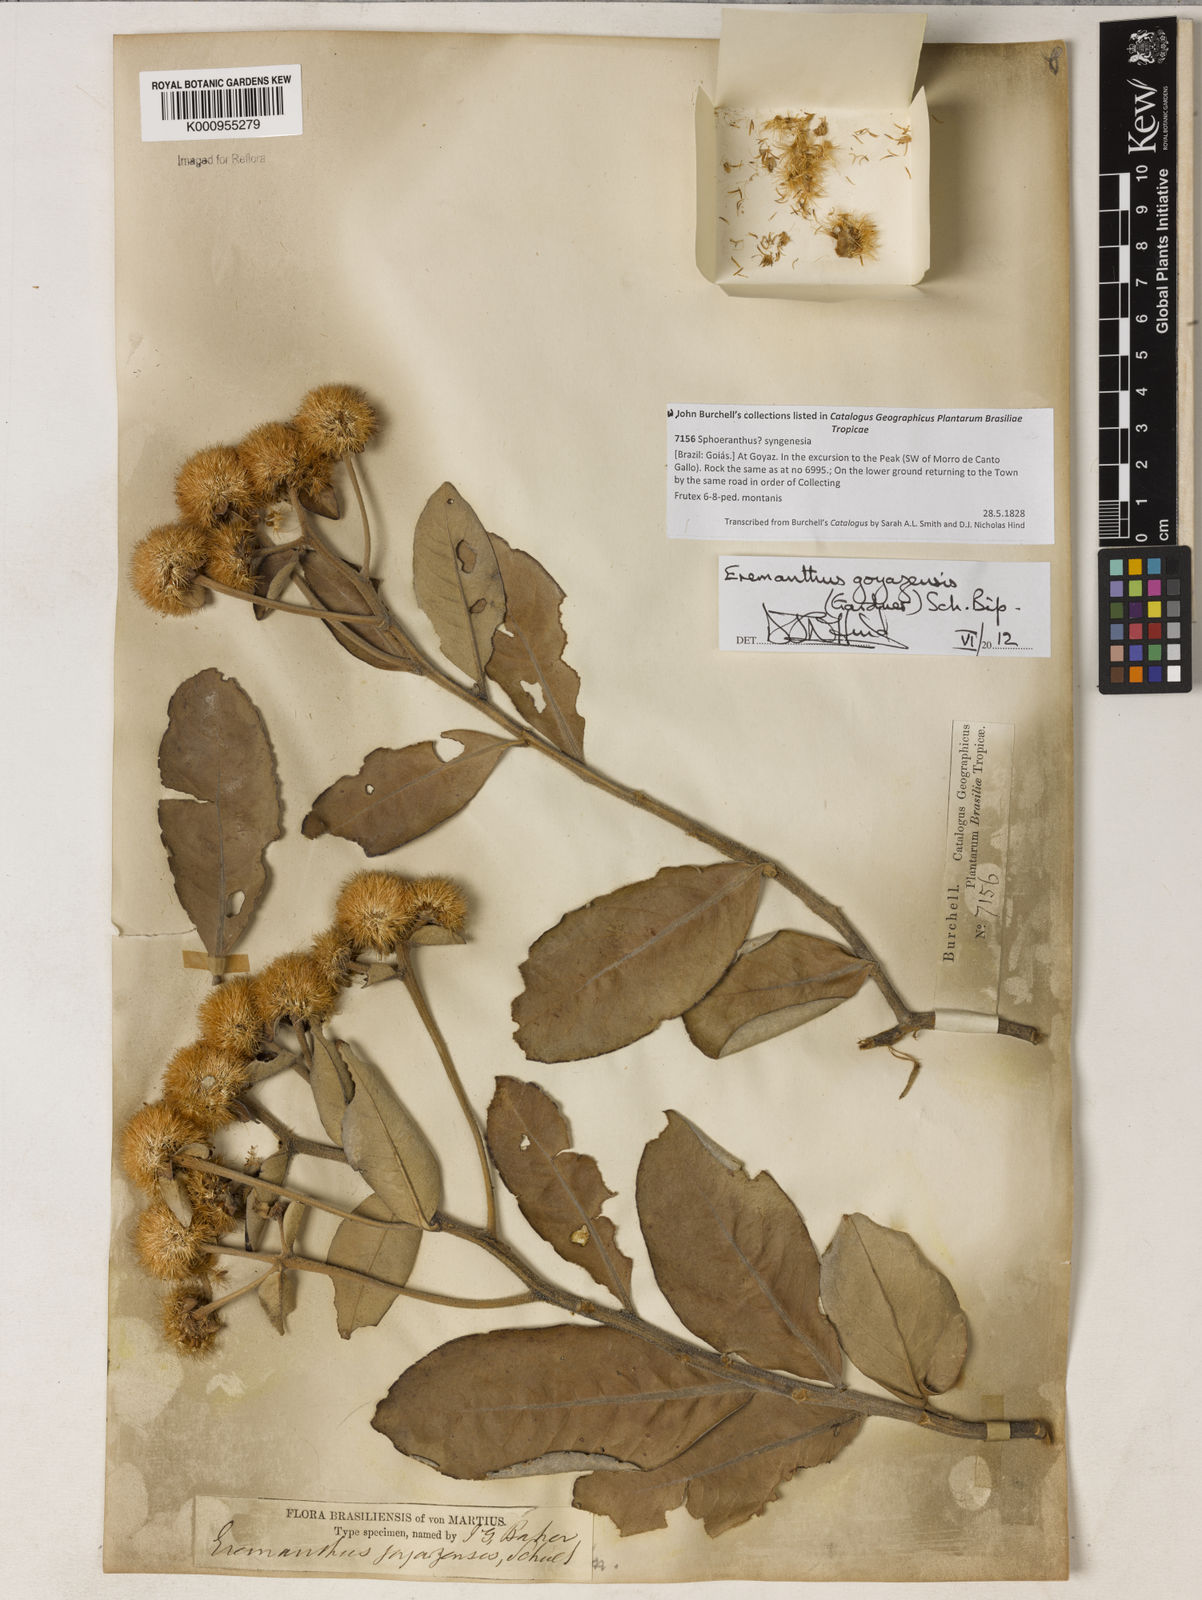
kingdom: Plantae
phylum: Tracheophyta
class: Magnoliopsida
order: Asterales
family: Asteraceae
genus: Eremanthus
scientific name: Eremanthus goyazensis
